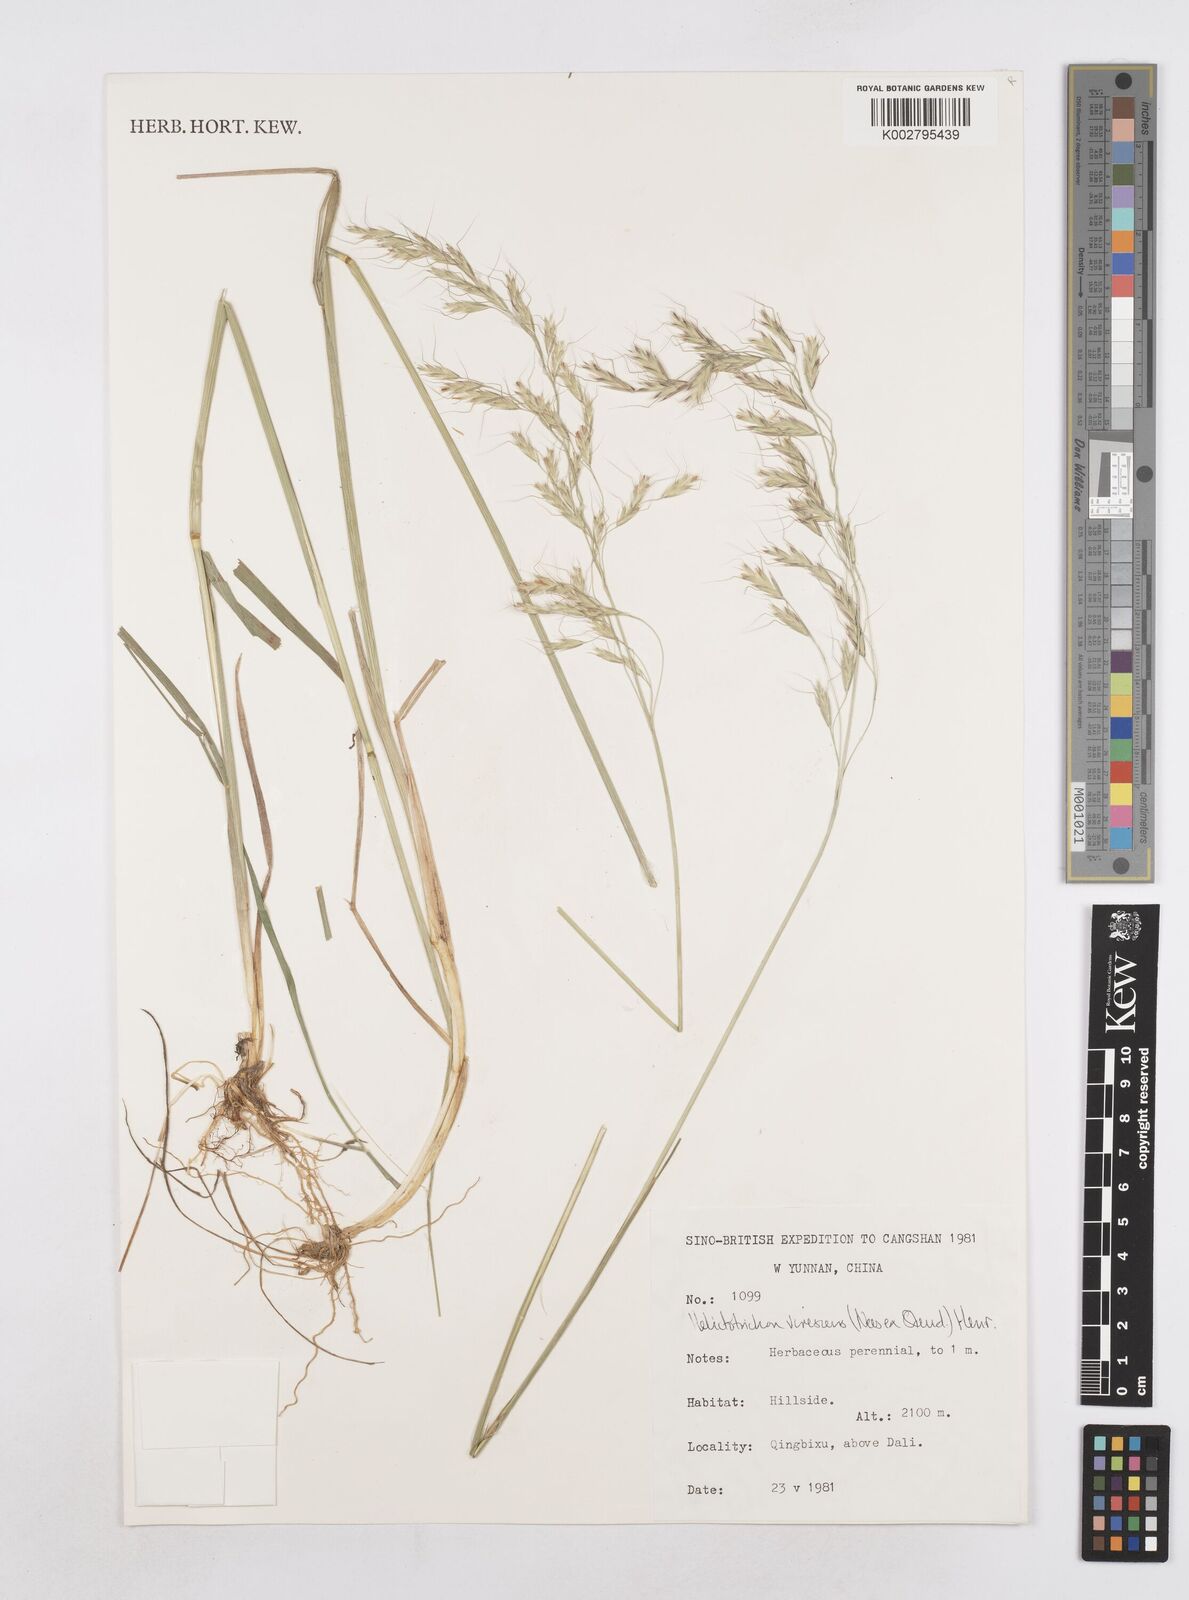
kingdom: Plantae
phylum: Tracheophyta
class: Liliopsida
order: Poales
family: Poaceae
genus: Trisetopsis
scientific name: Trisetopsis junghuhnii
